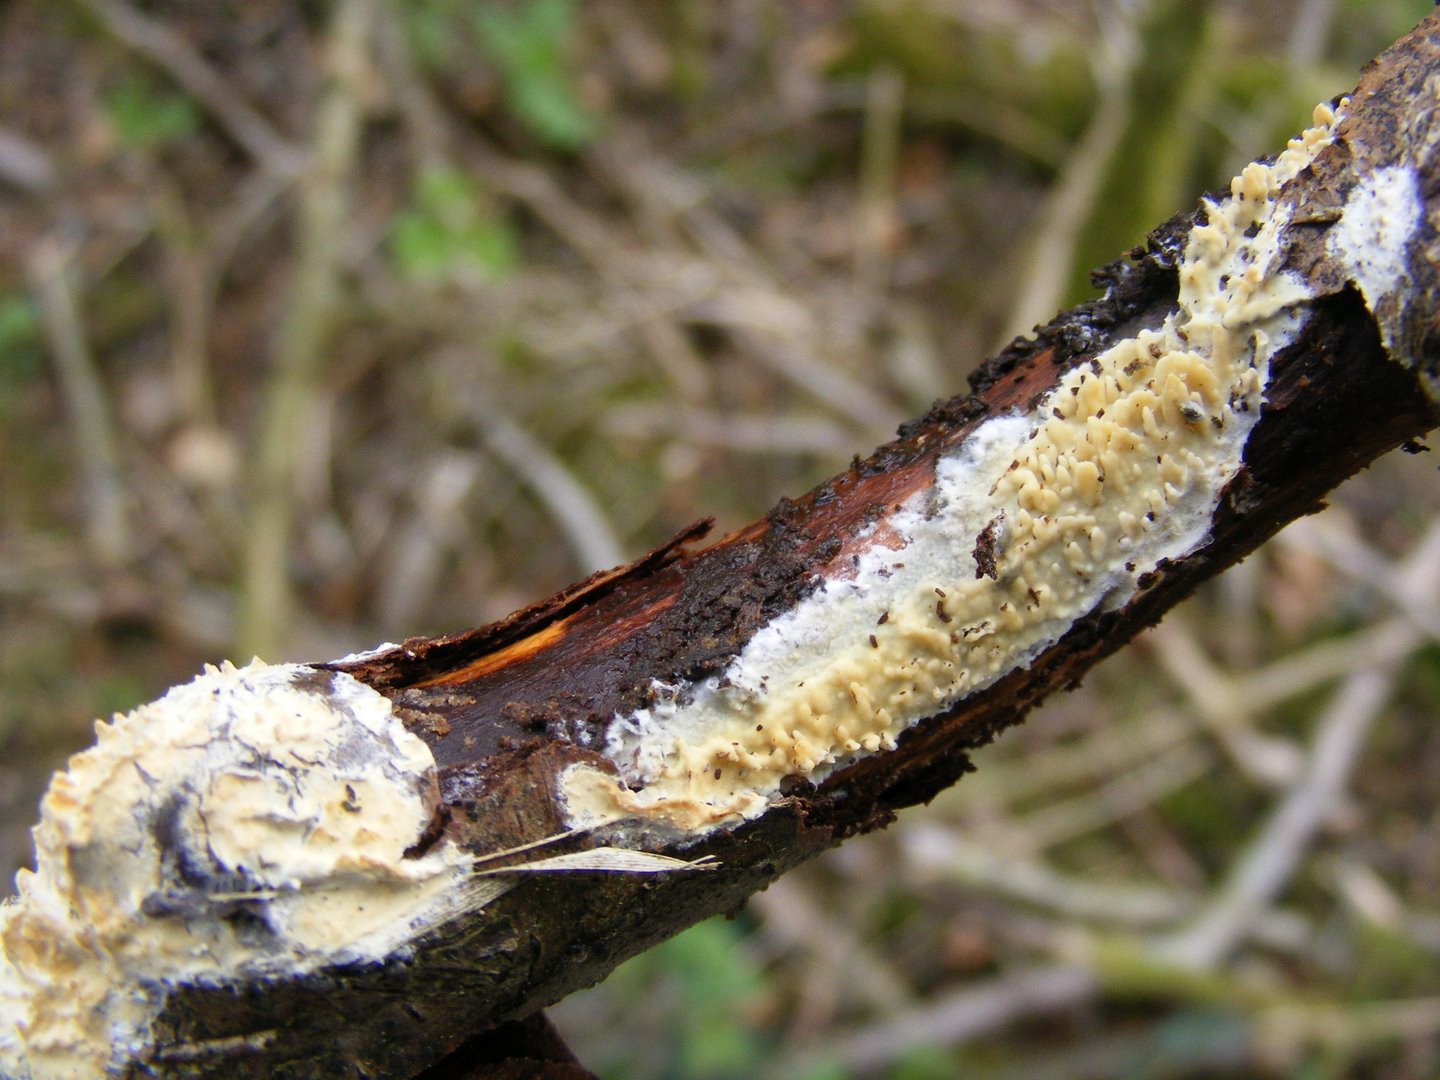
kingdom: Fungi
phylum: Basidiomycota
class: Agaricomycetes
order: Hymenochaetales
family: Schizoporaceae
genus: Xylodon
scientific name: Xylodon radula
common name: grovtandet kalkskind
